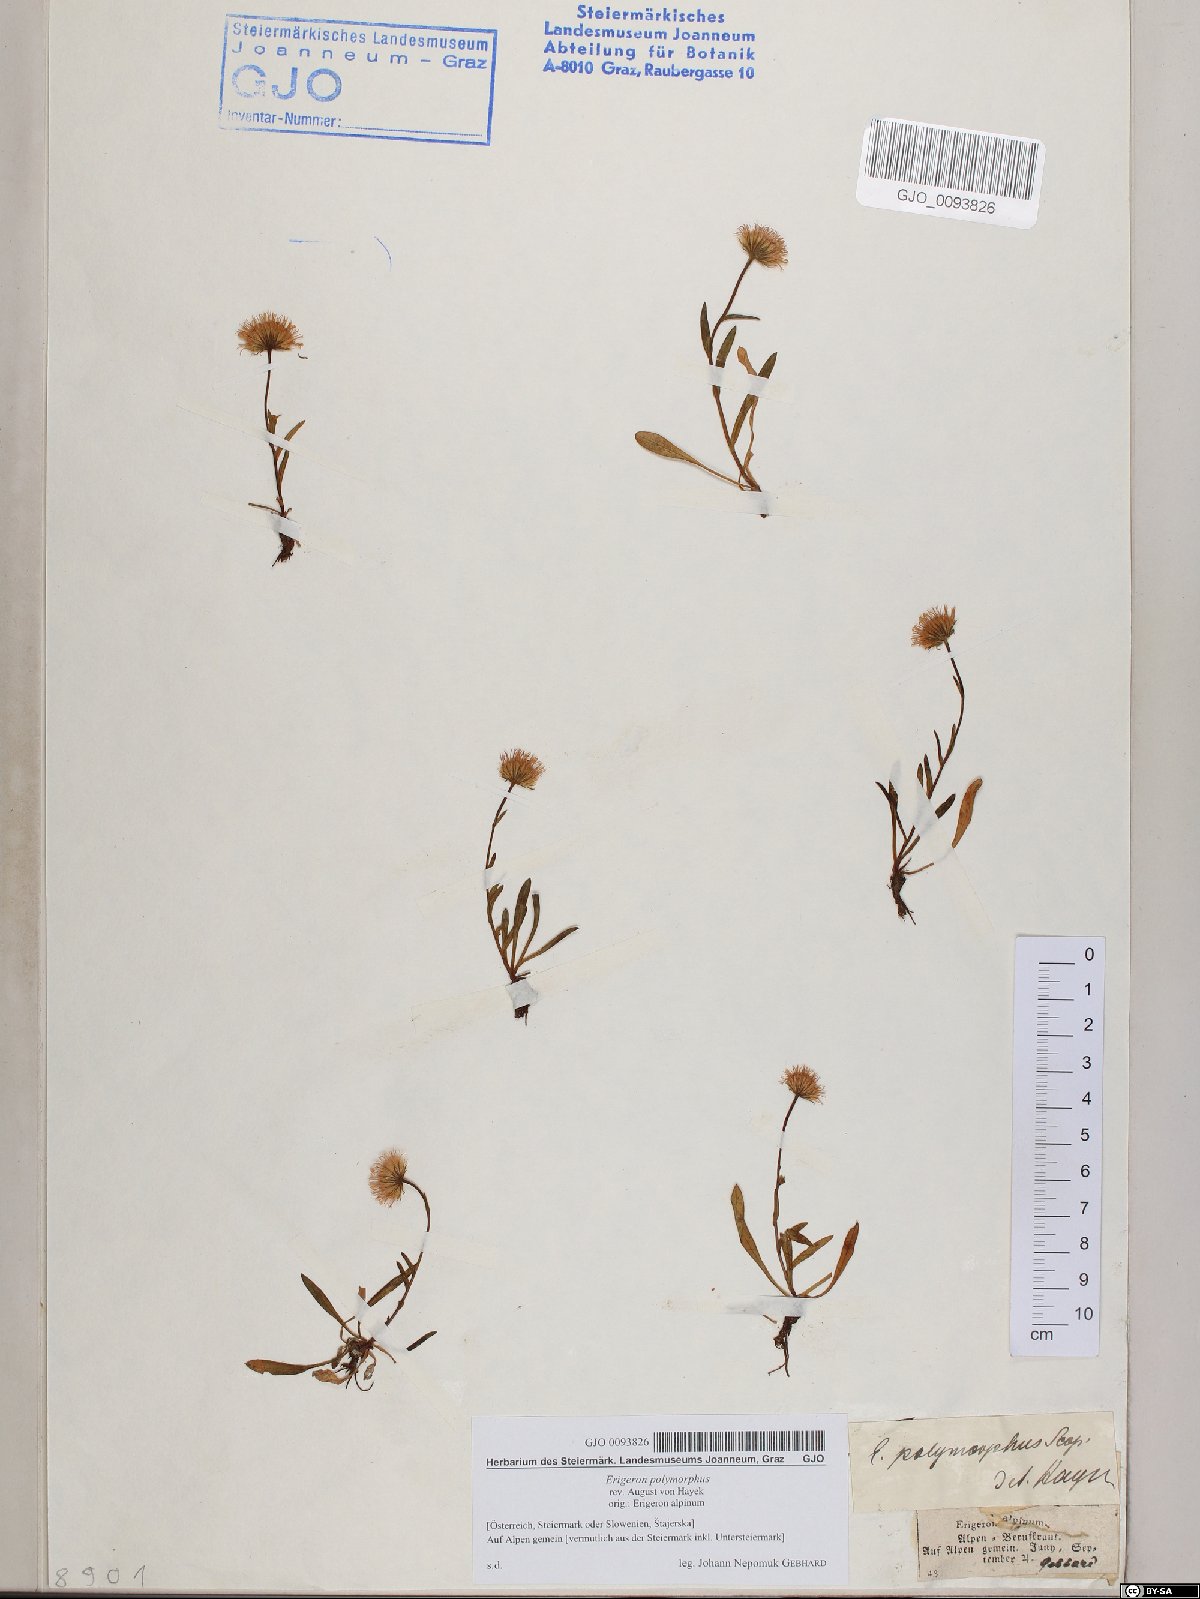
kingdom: Plantae
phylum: Tracheophyta
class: Magnoliopsida
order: Asterales
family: Asteraceae
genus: Erigeron
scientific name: Erigeron alpinus
